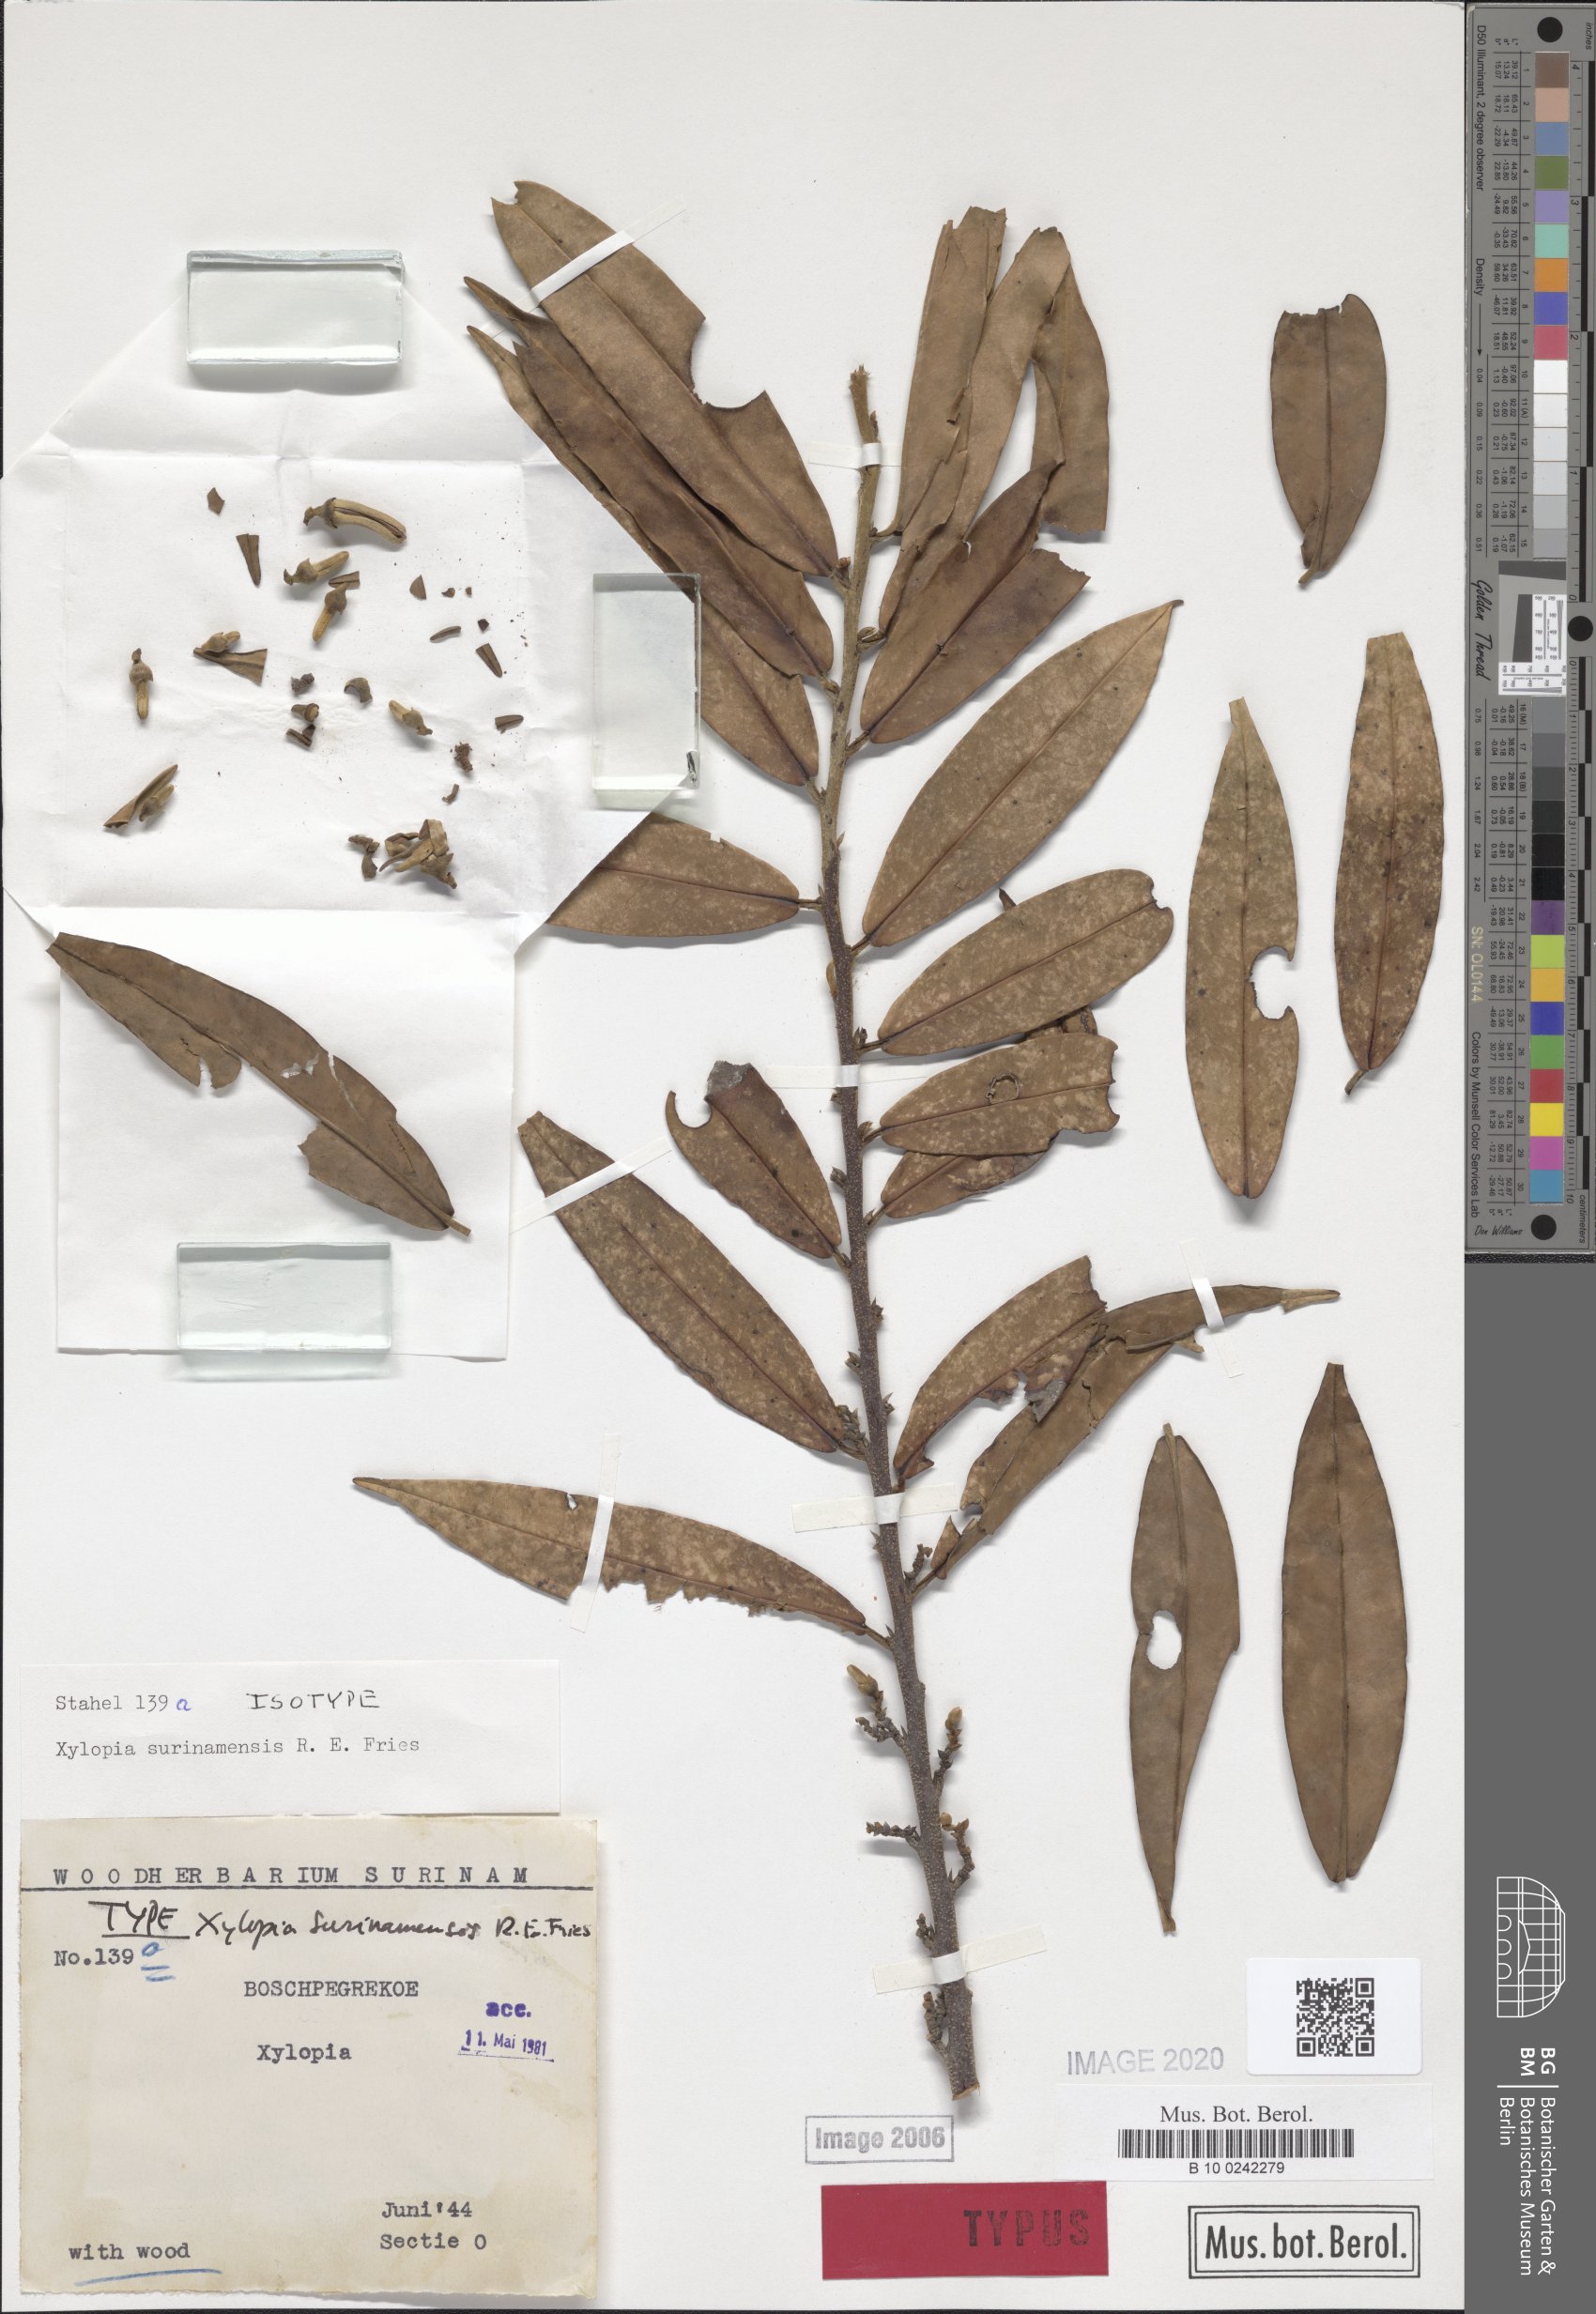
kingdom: Plantae
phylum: Tracheophyta
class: Magnoliopsida
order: Magnoliales
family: Annonaceae
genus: Xylopia
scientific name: Xylopia surinamensis
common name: Black wepopi
